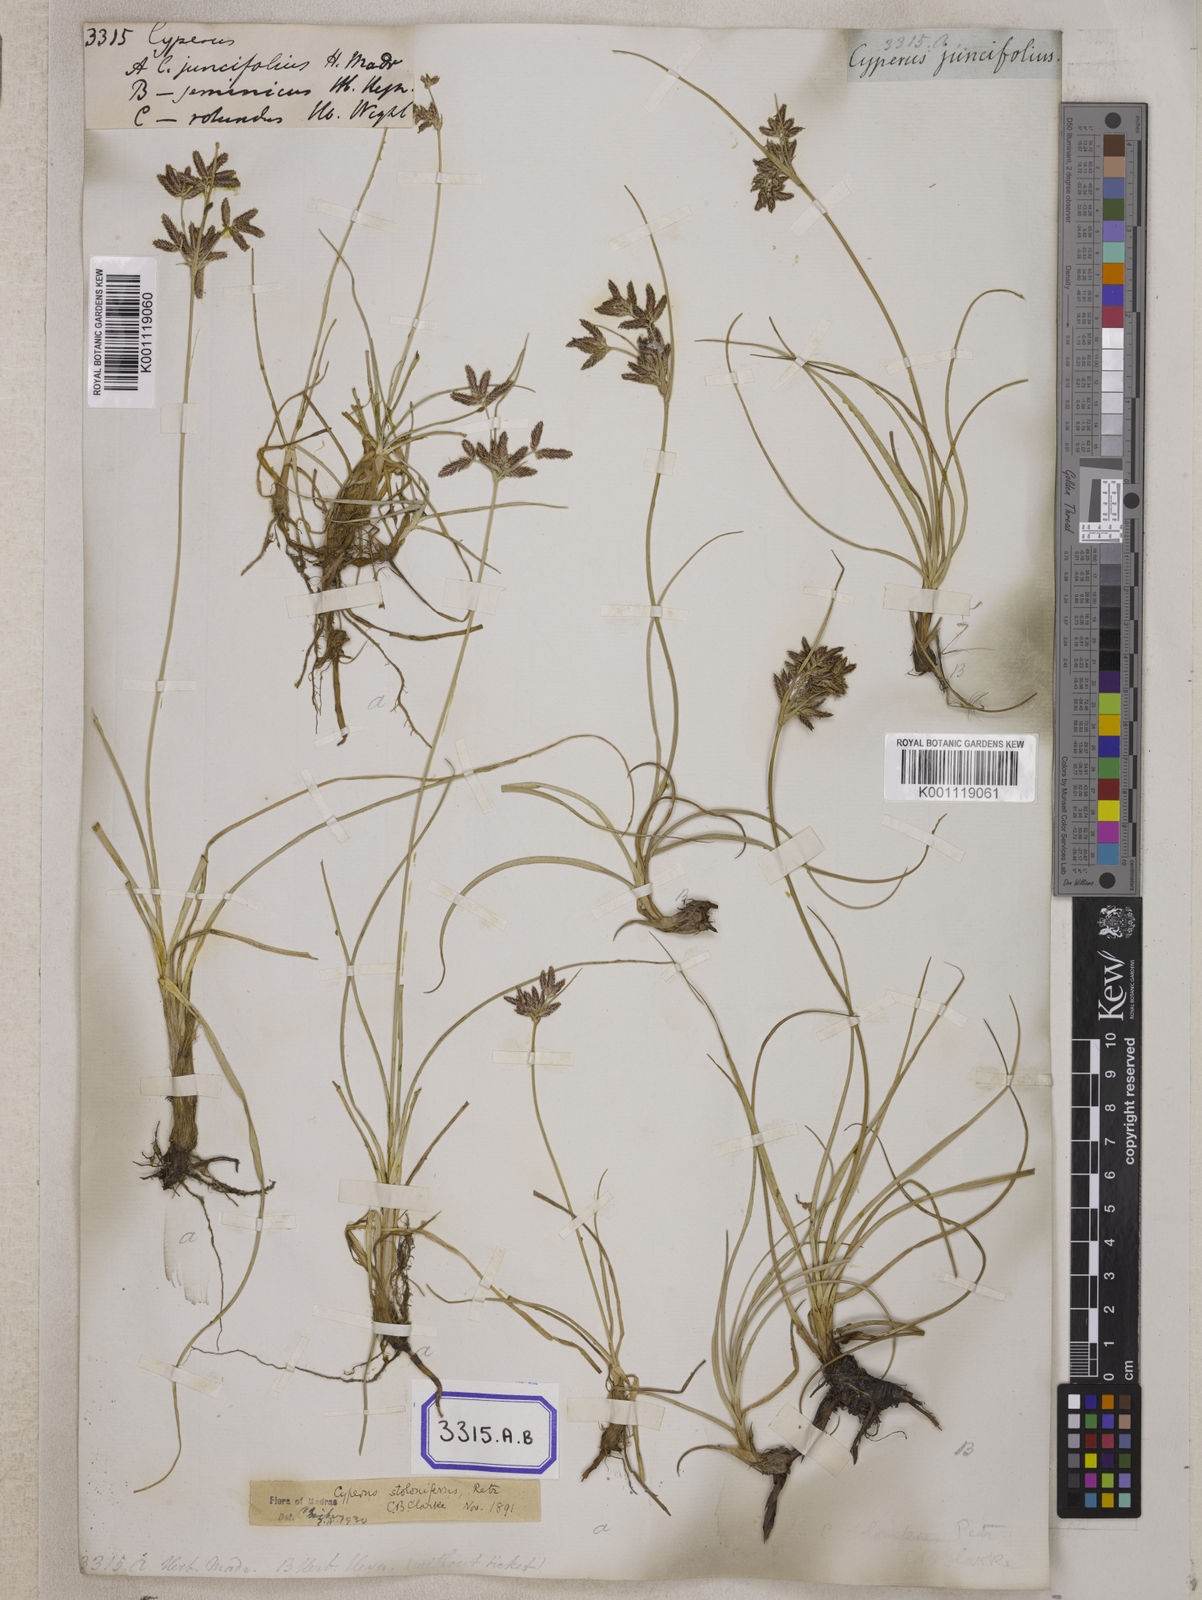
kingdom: Plantae
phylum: Tracheophyta
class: Liliopsida
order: Poales
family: Cyperaceae
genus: Cyperus
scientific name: Cyperus
